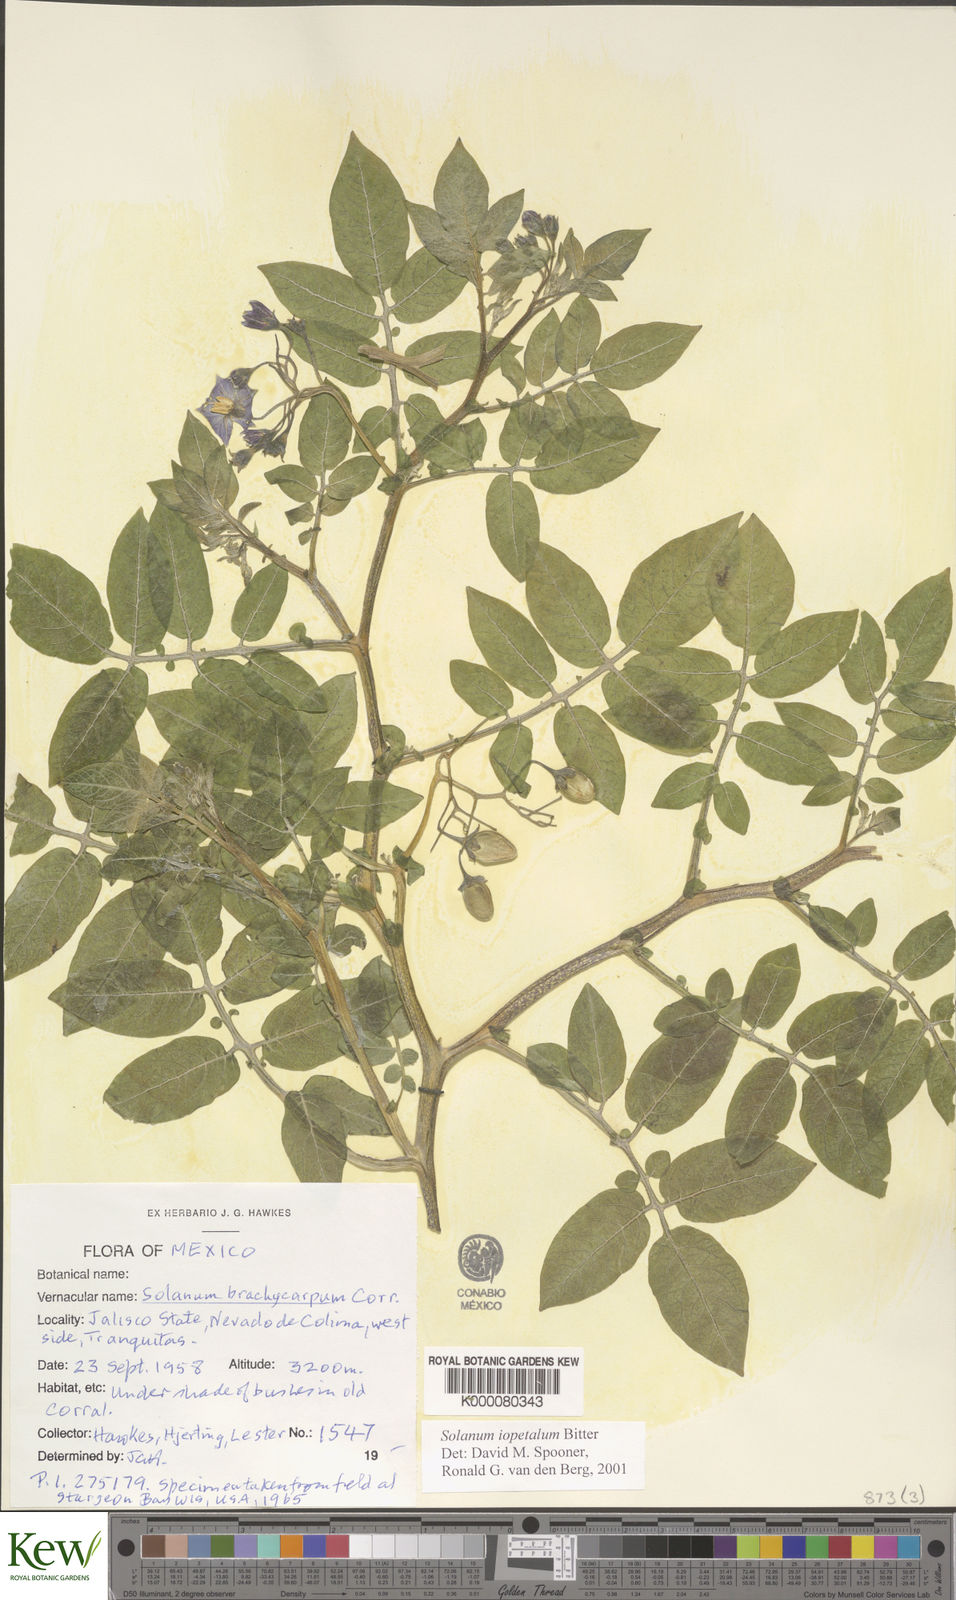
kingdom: Plantae
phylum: Tracheophyta
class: Magnoliopsida
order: Solanales
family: Solanaceae
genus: Solanum
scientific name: Solanum iopetalum
